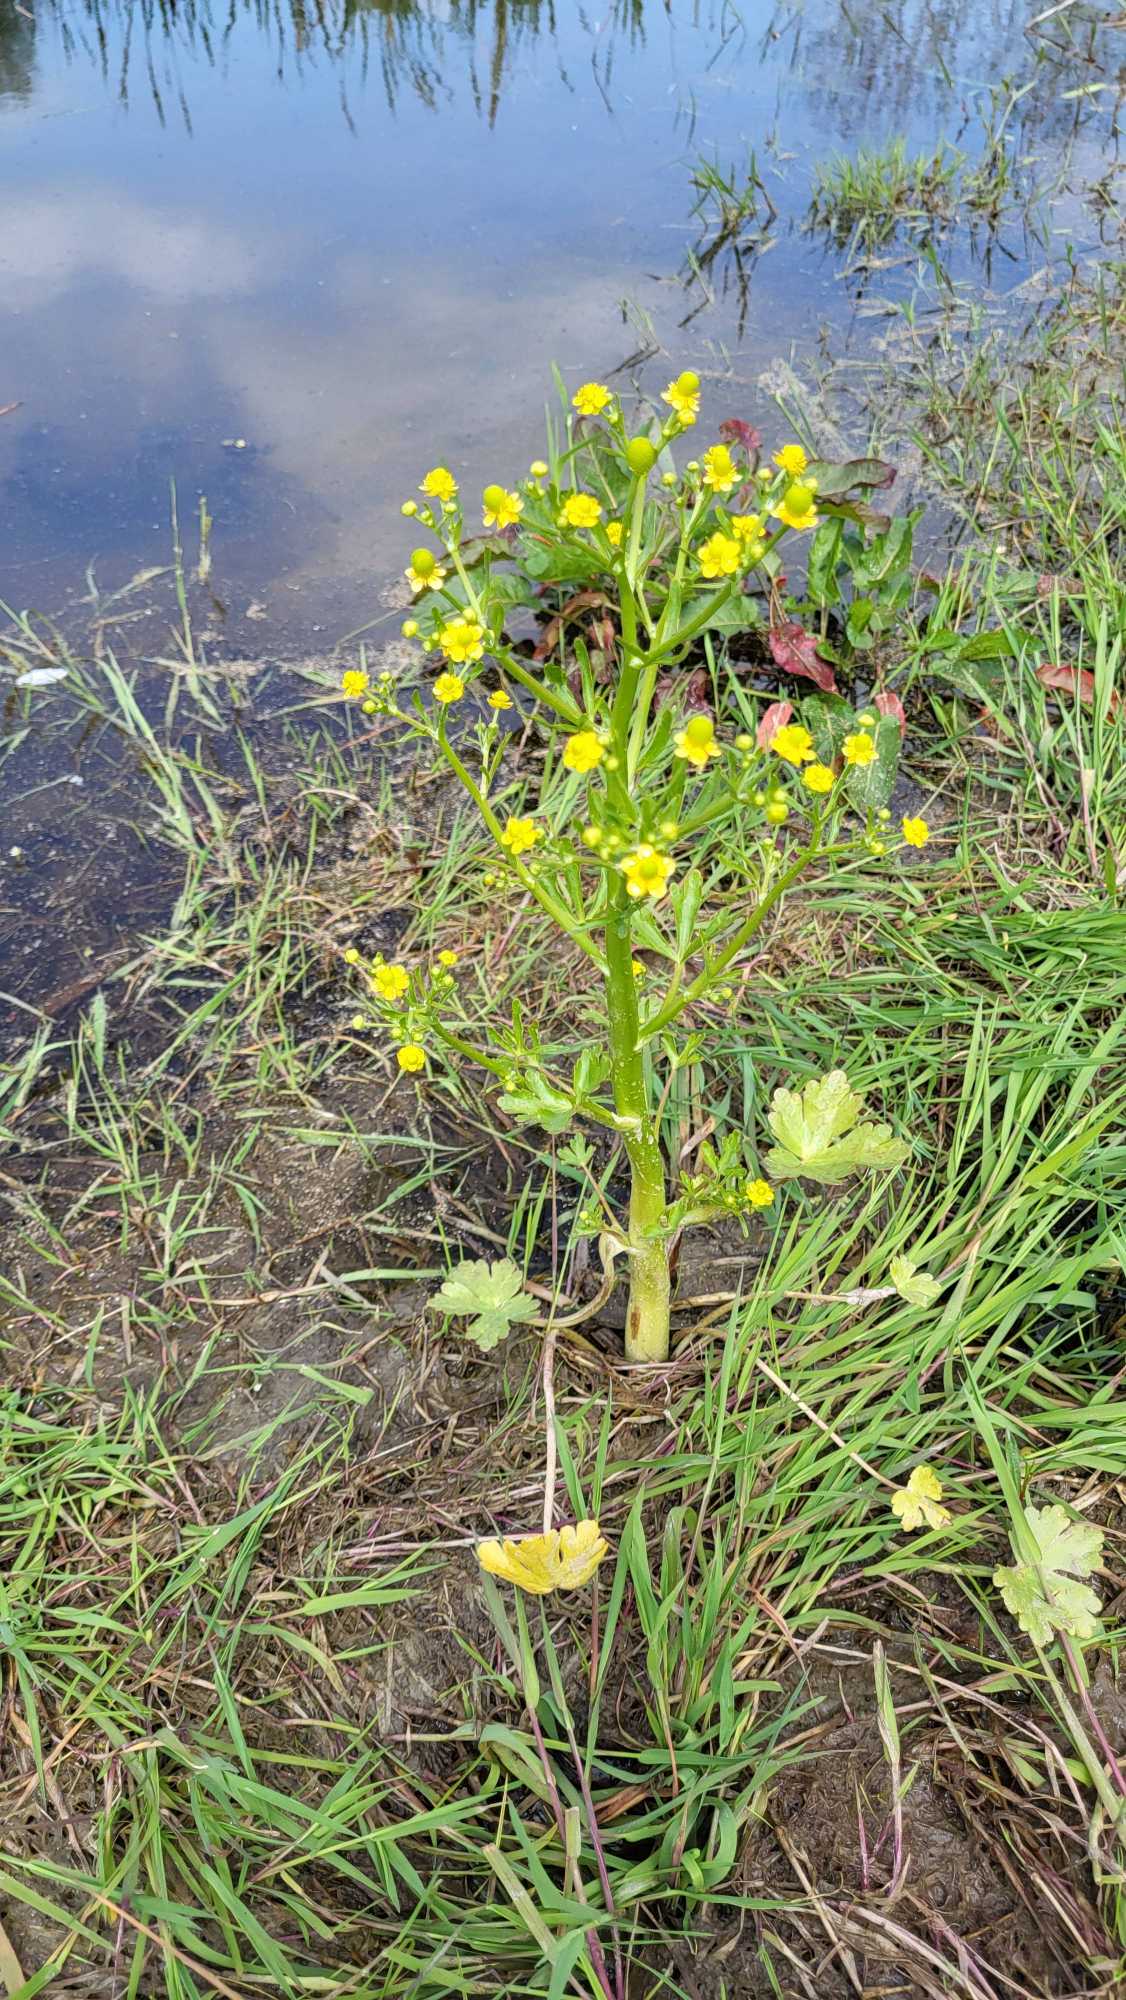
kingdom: Plantae
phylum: Tracheophyta
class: Magnoliopsida
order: Ranunculales
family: Ranunculaceae
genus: Ranunculus
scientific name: Ranunculus sceleratus
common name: Tigger-ranunkel
